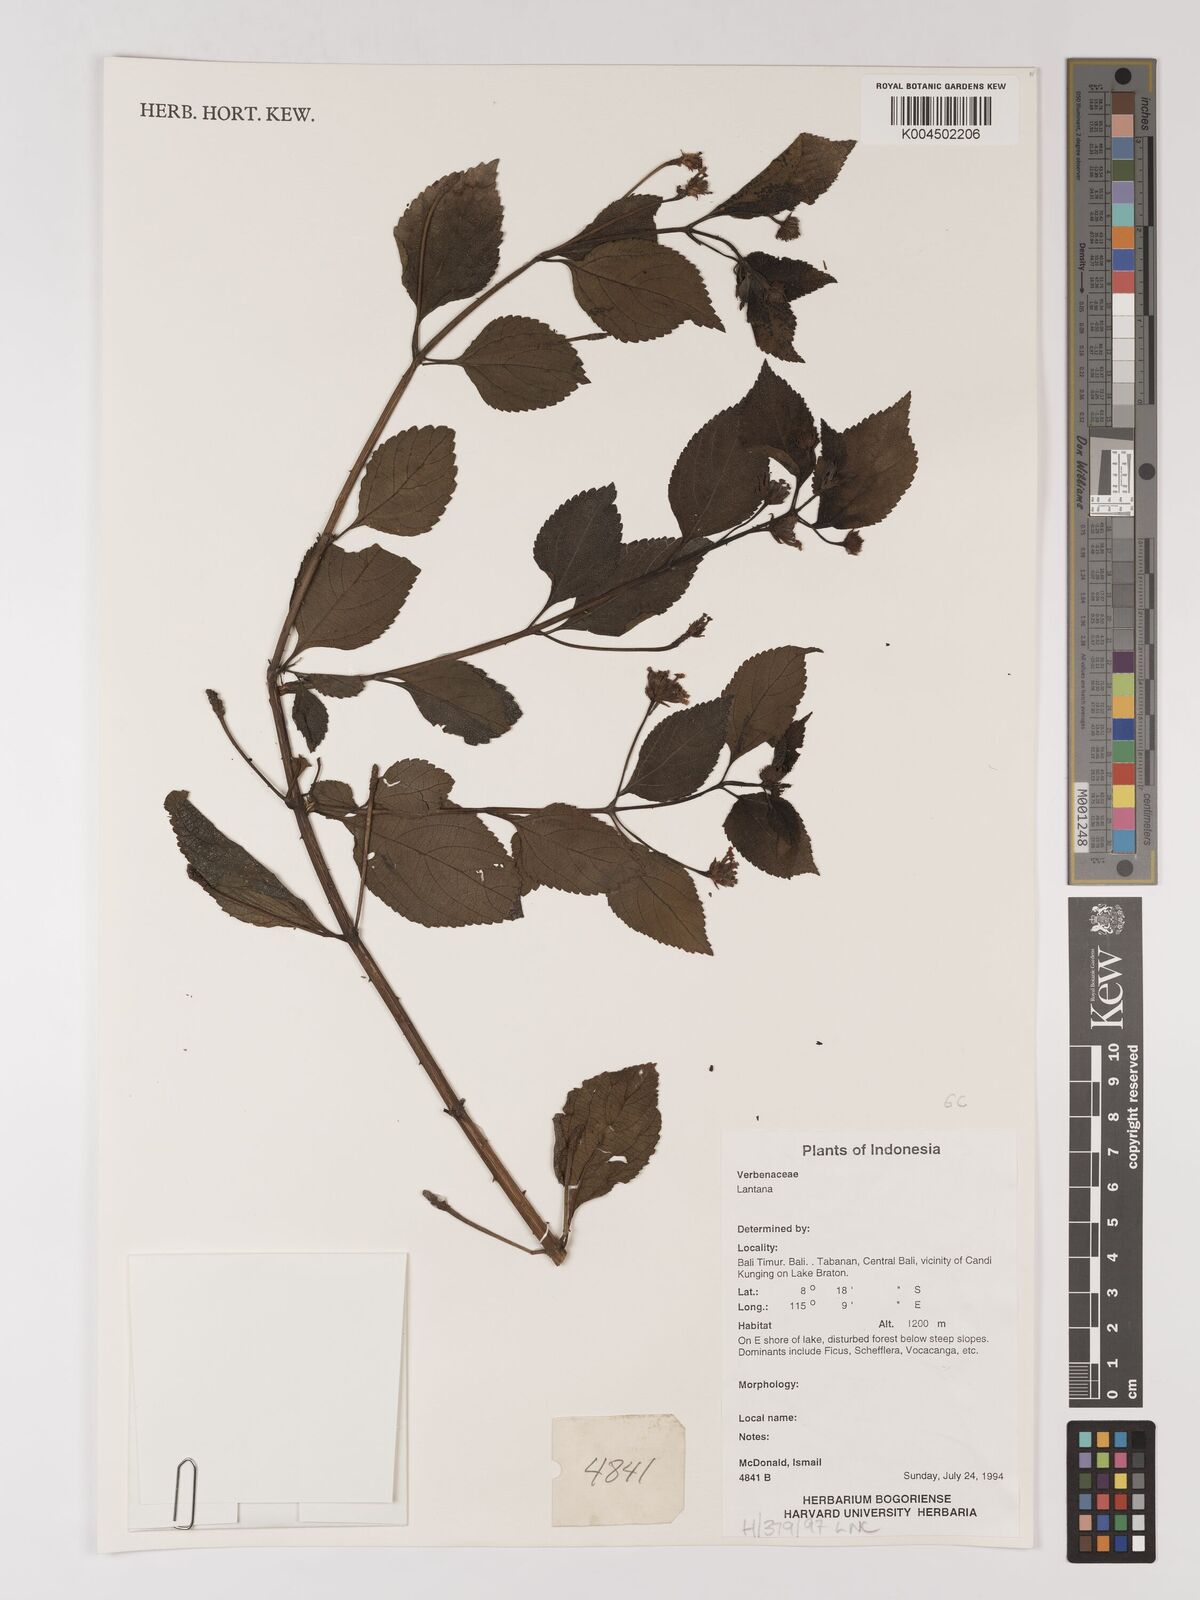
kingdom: Plantae
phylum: Tracheophyta
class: Magnoliopsida
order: Lamiales
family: Verbenaceae
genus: Lantana
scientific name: Lantana
